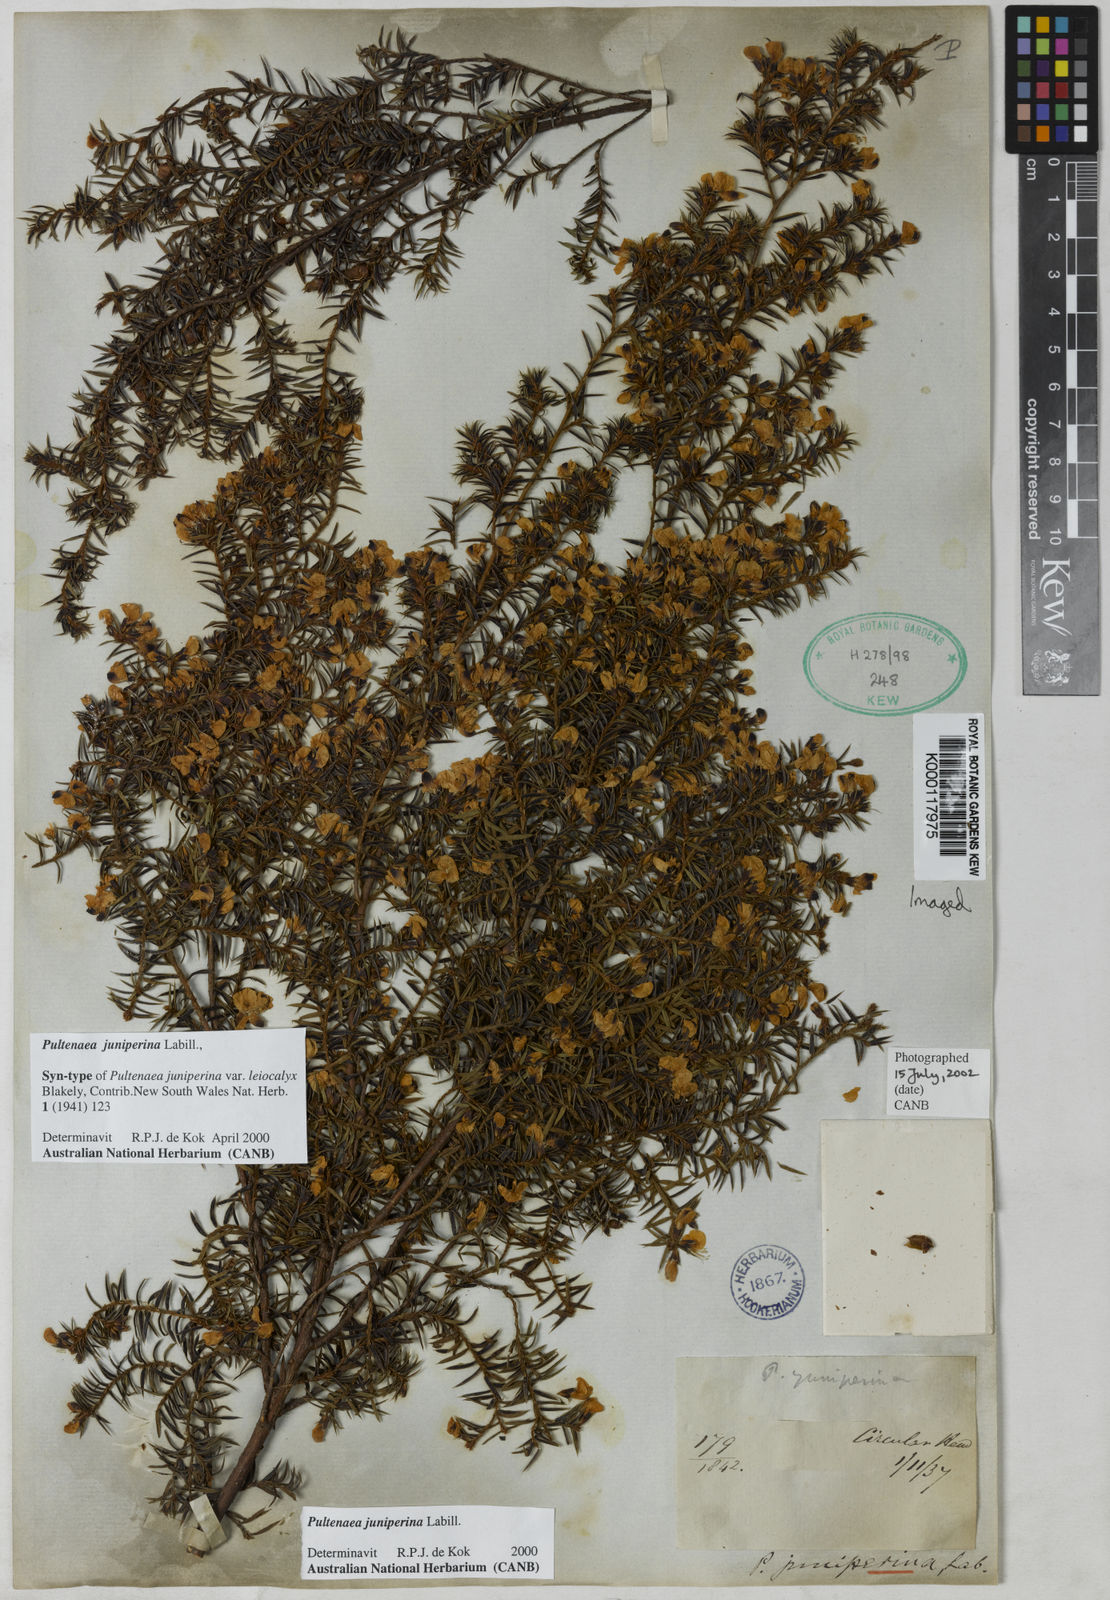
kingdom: Plantae
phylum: Tracheophyta
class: Magnoliopsida
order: Fabales
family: Fabaceae
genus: Pultenaea
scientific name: Pultenaea juniperina
